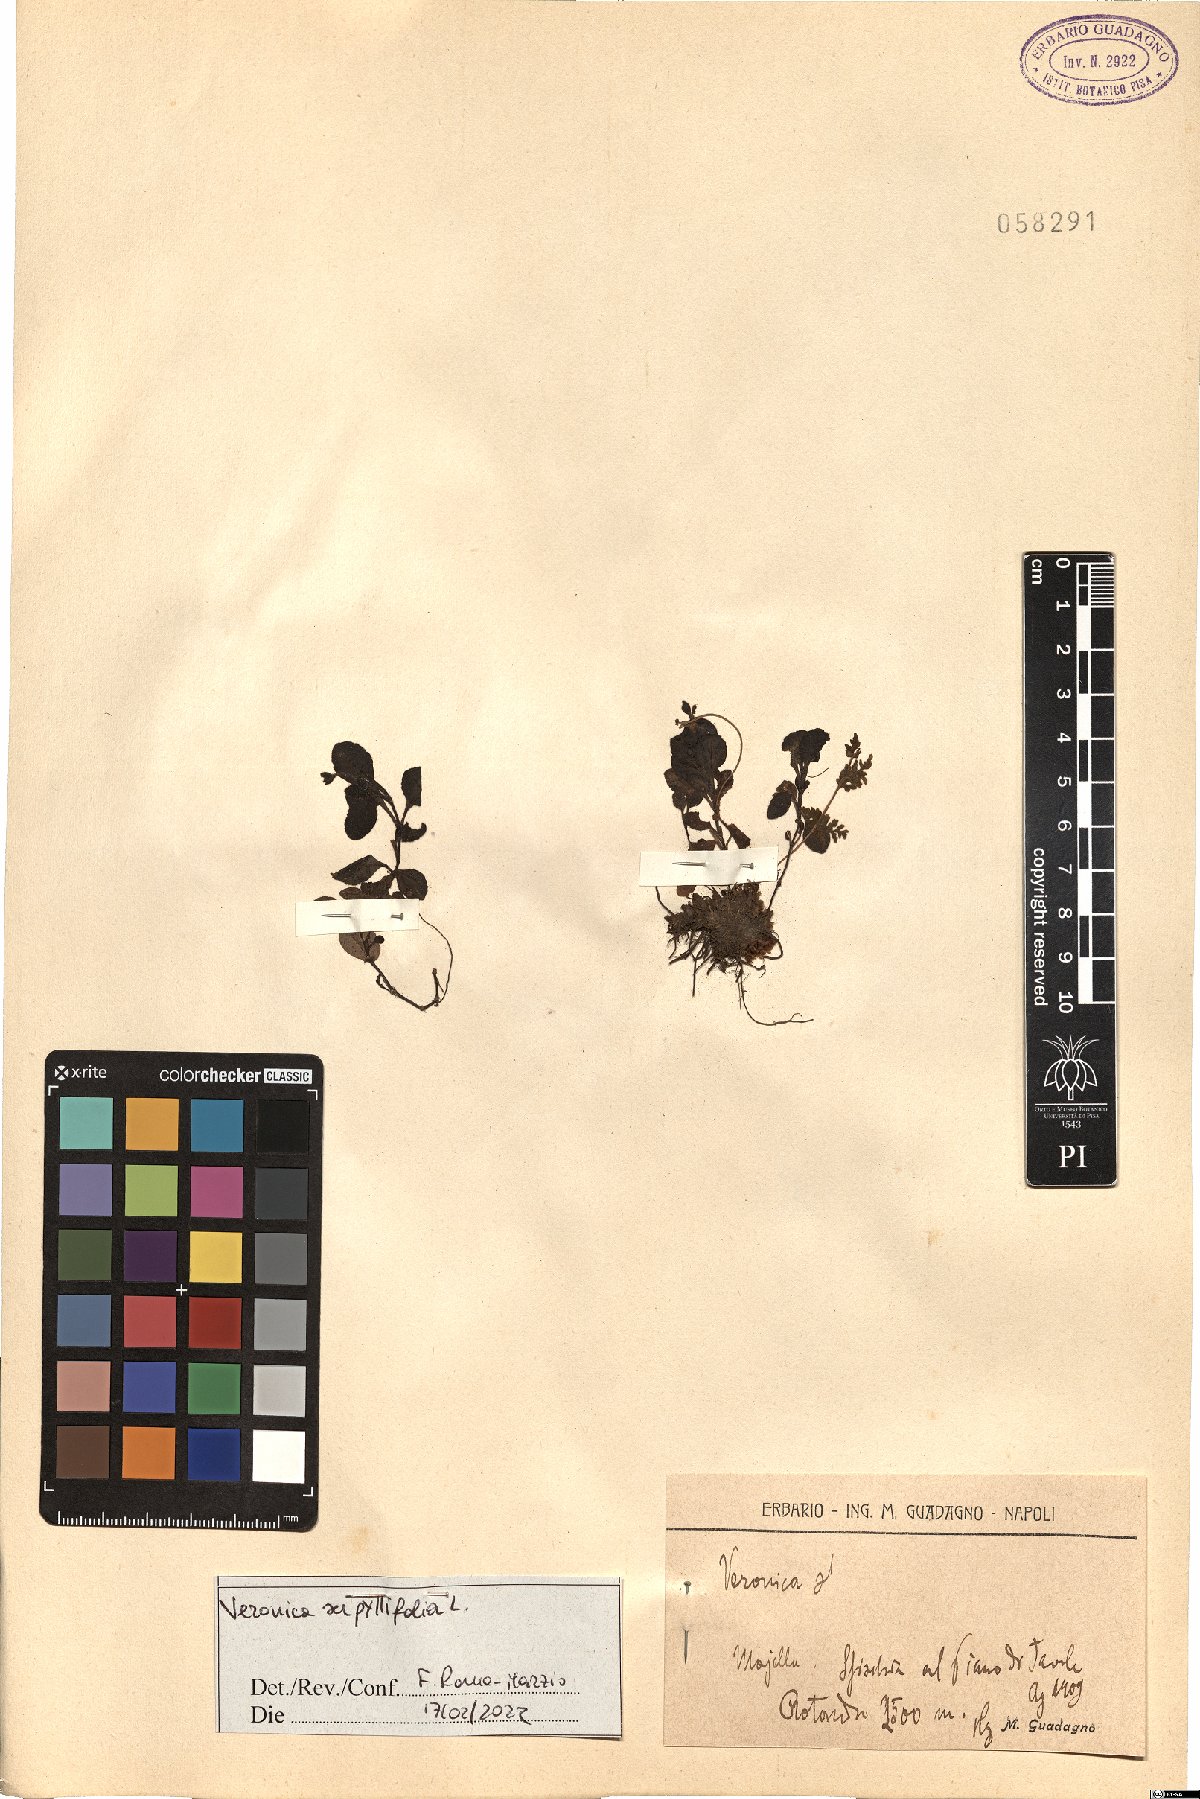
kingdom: Plantae
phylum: Tracheophyta
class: Magnoliopsida
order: Lamiales
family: Plantaginaceae
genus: Veronica
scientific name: Veronica serpyllifolia
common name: Thyme-leaved speedwell
